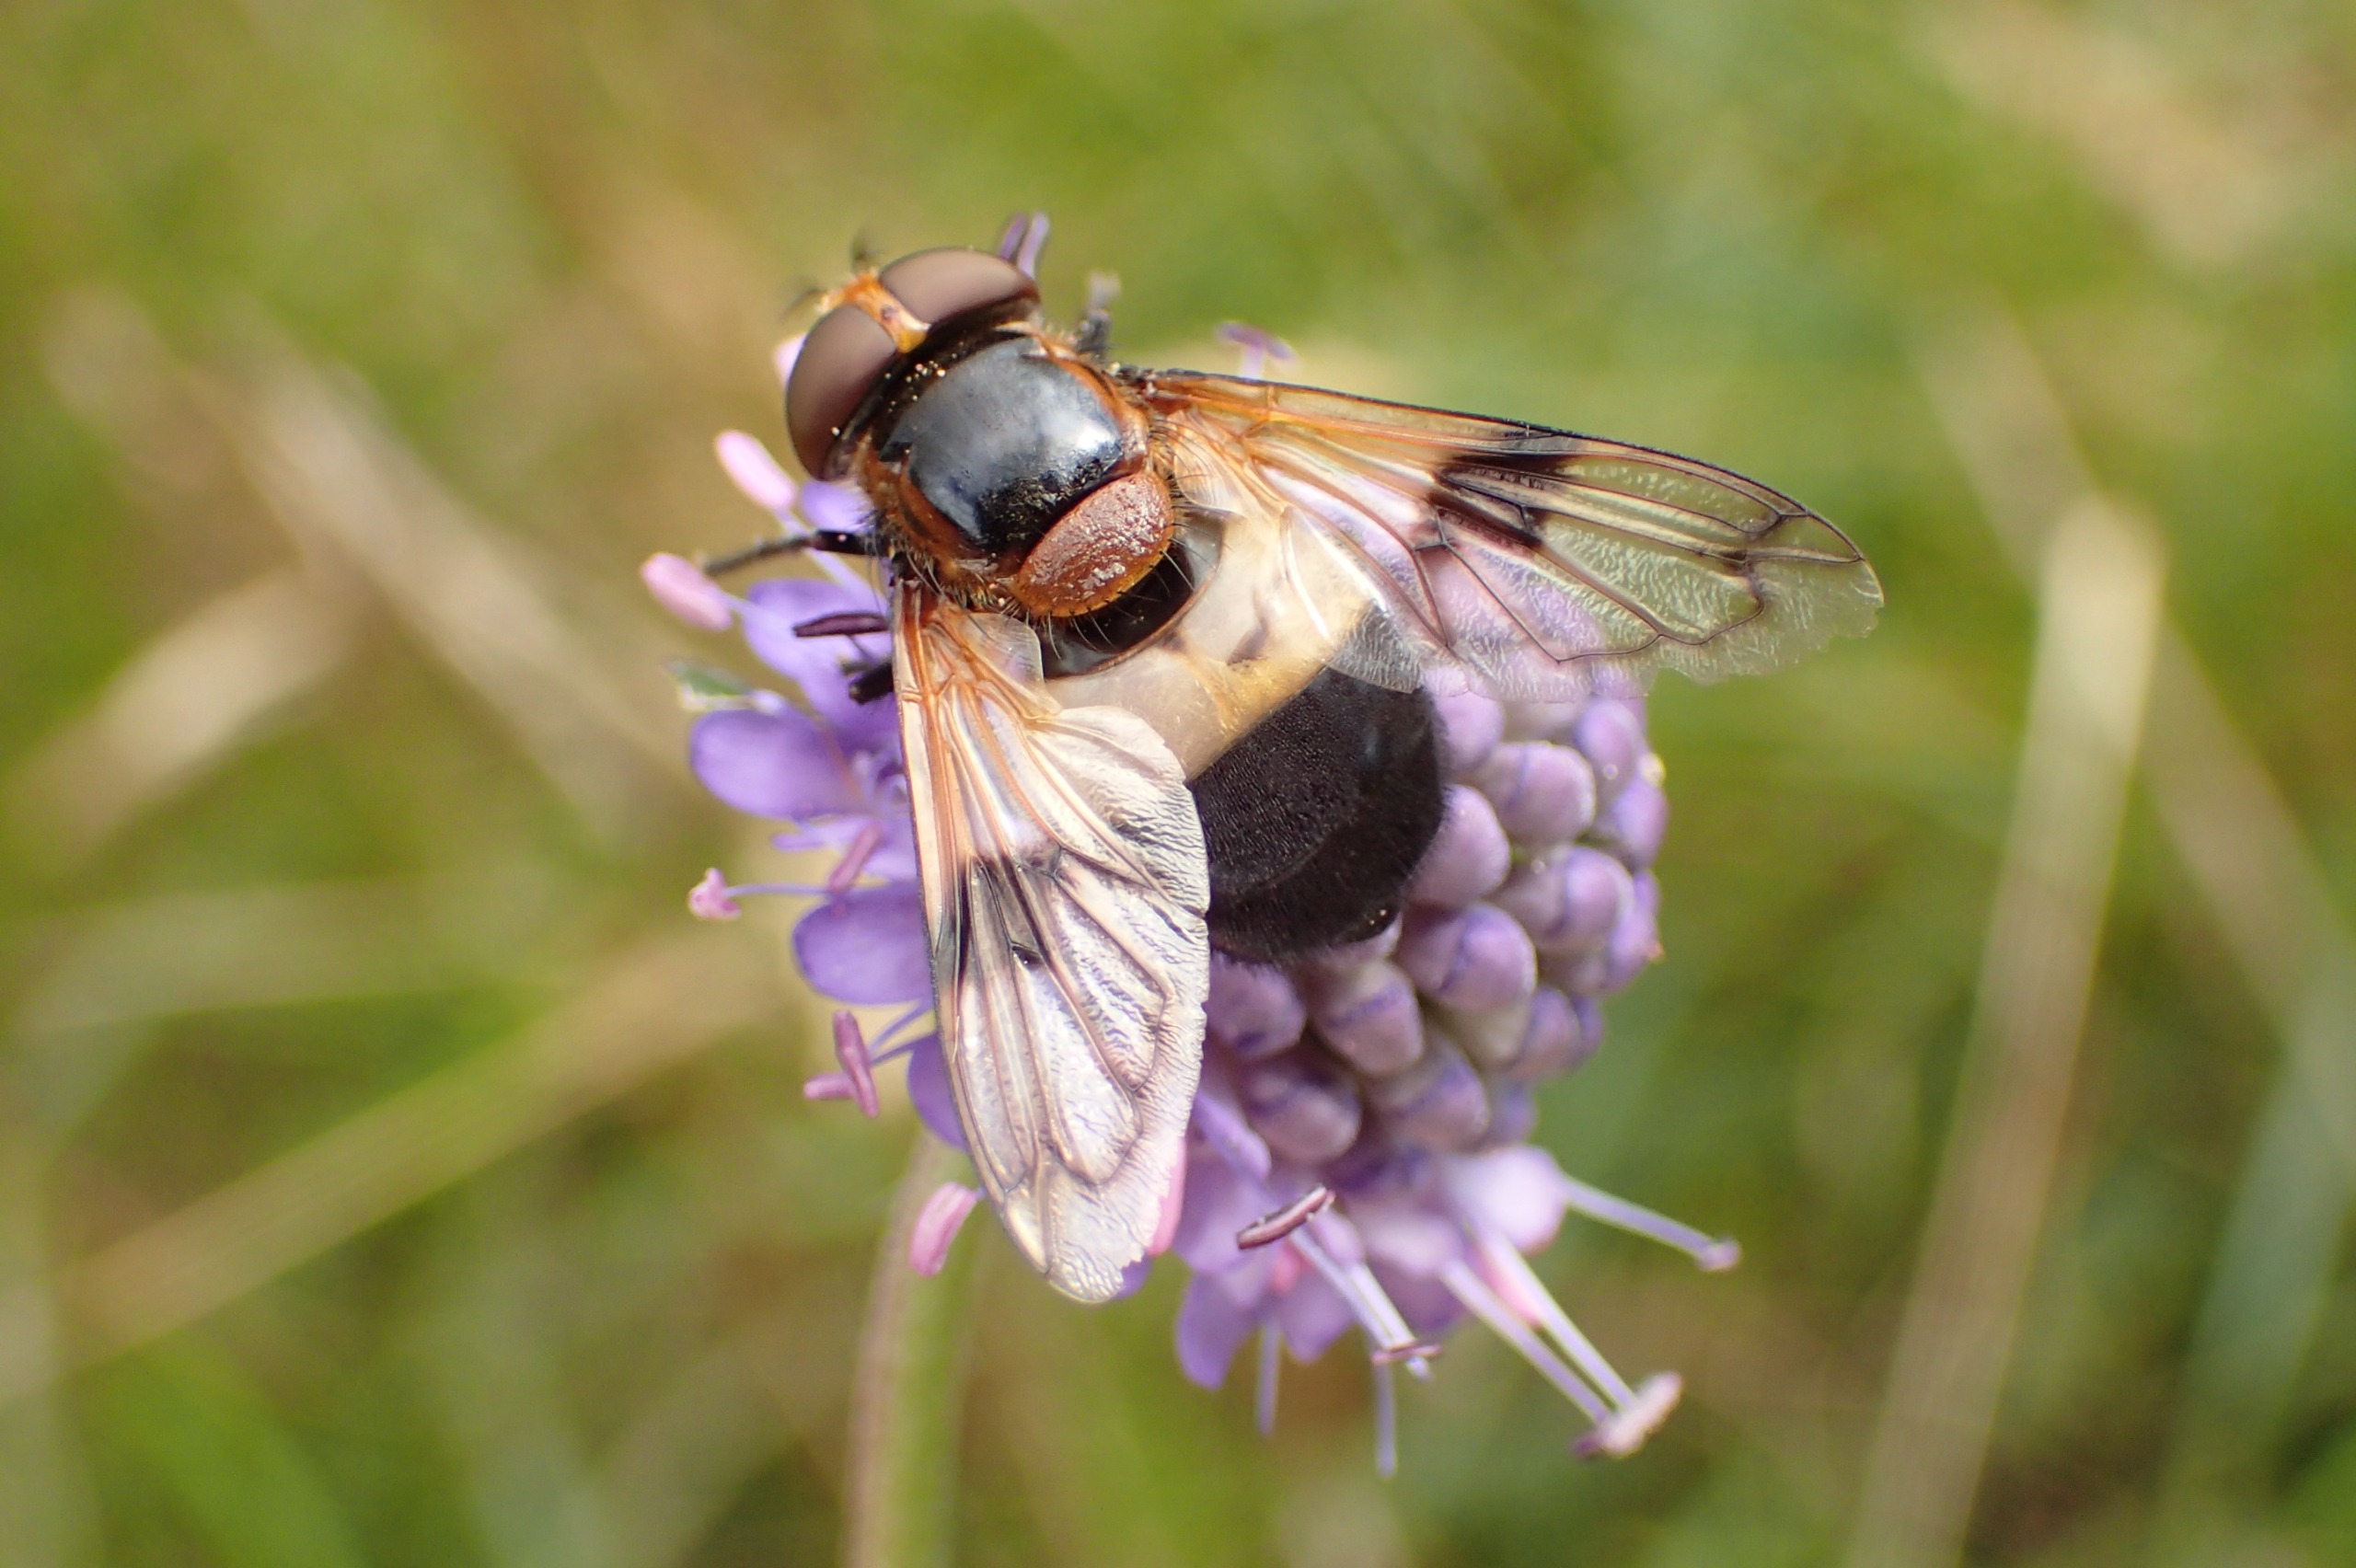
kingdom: Animalia
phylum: Arthropoda
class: Insecta
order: Diptera
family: Syrphidae
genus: Volucella
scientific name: Volucella pellucens
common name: Hvidbåndet humlesvirreflue
